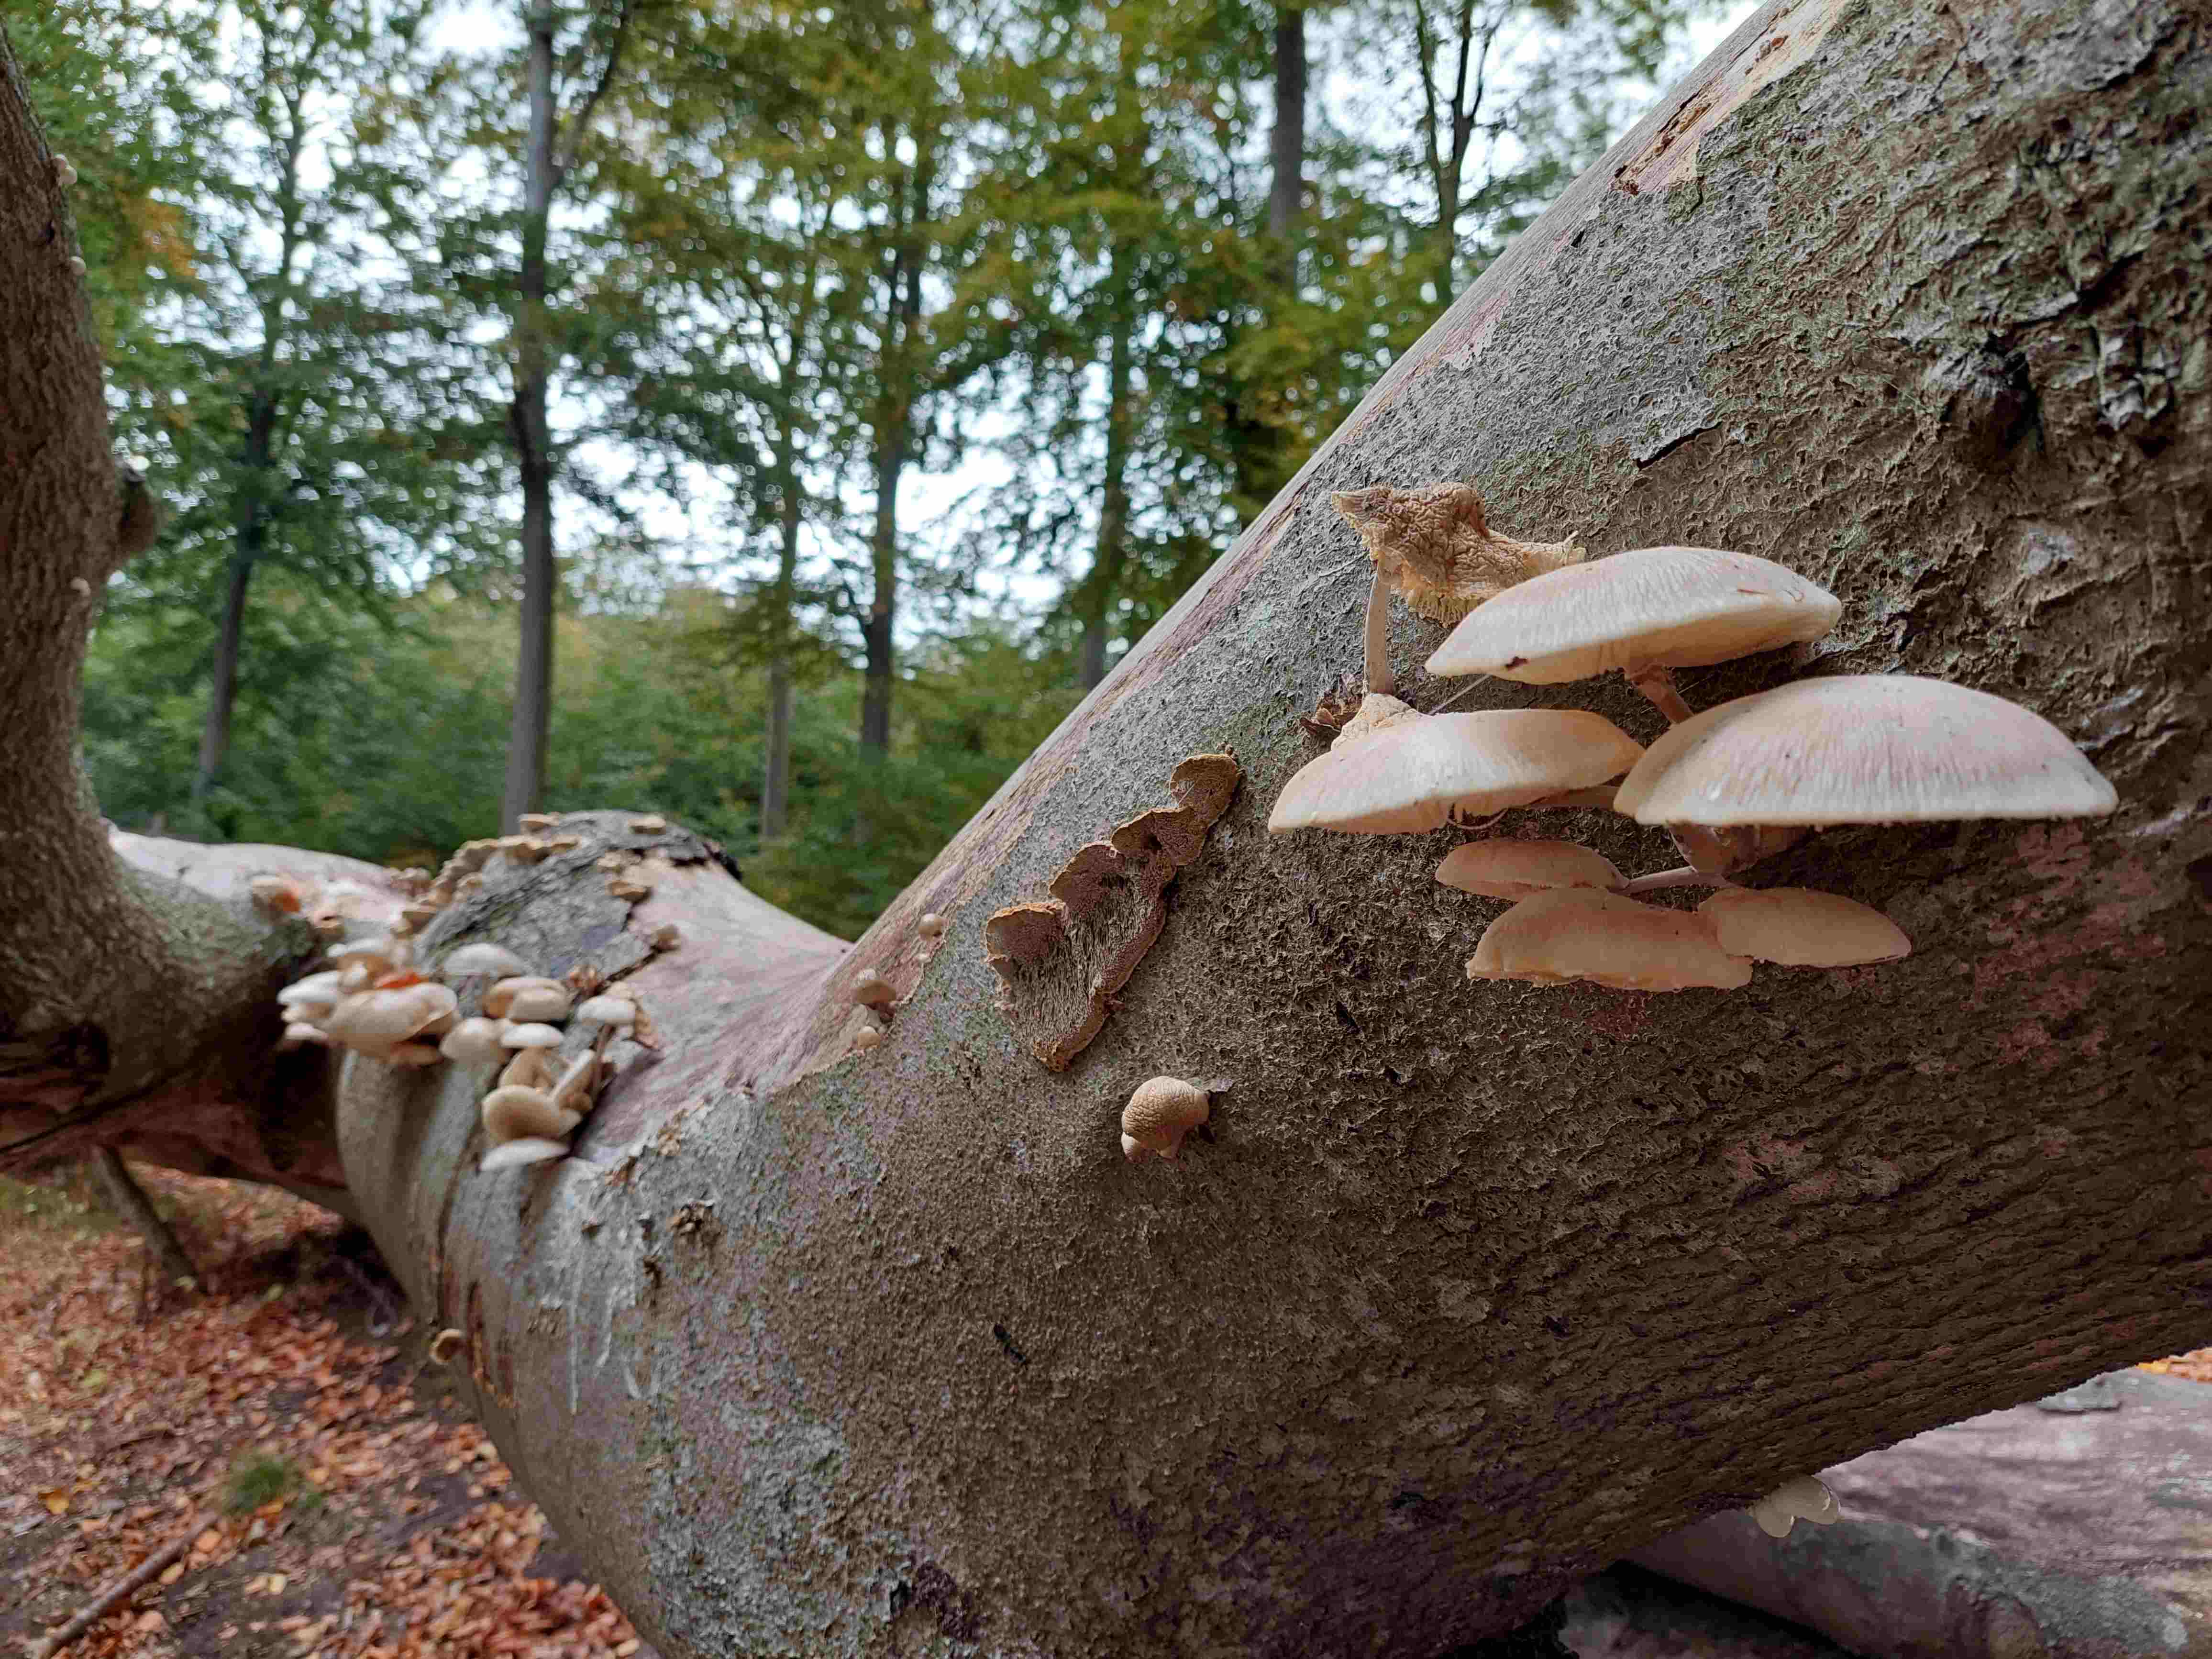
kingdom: Fungi
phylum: Basidiomycota
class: Agaricomycetes
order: Agaricales
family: Physalacriaceae
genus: Mucidula
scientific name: Mucidula mucida
